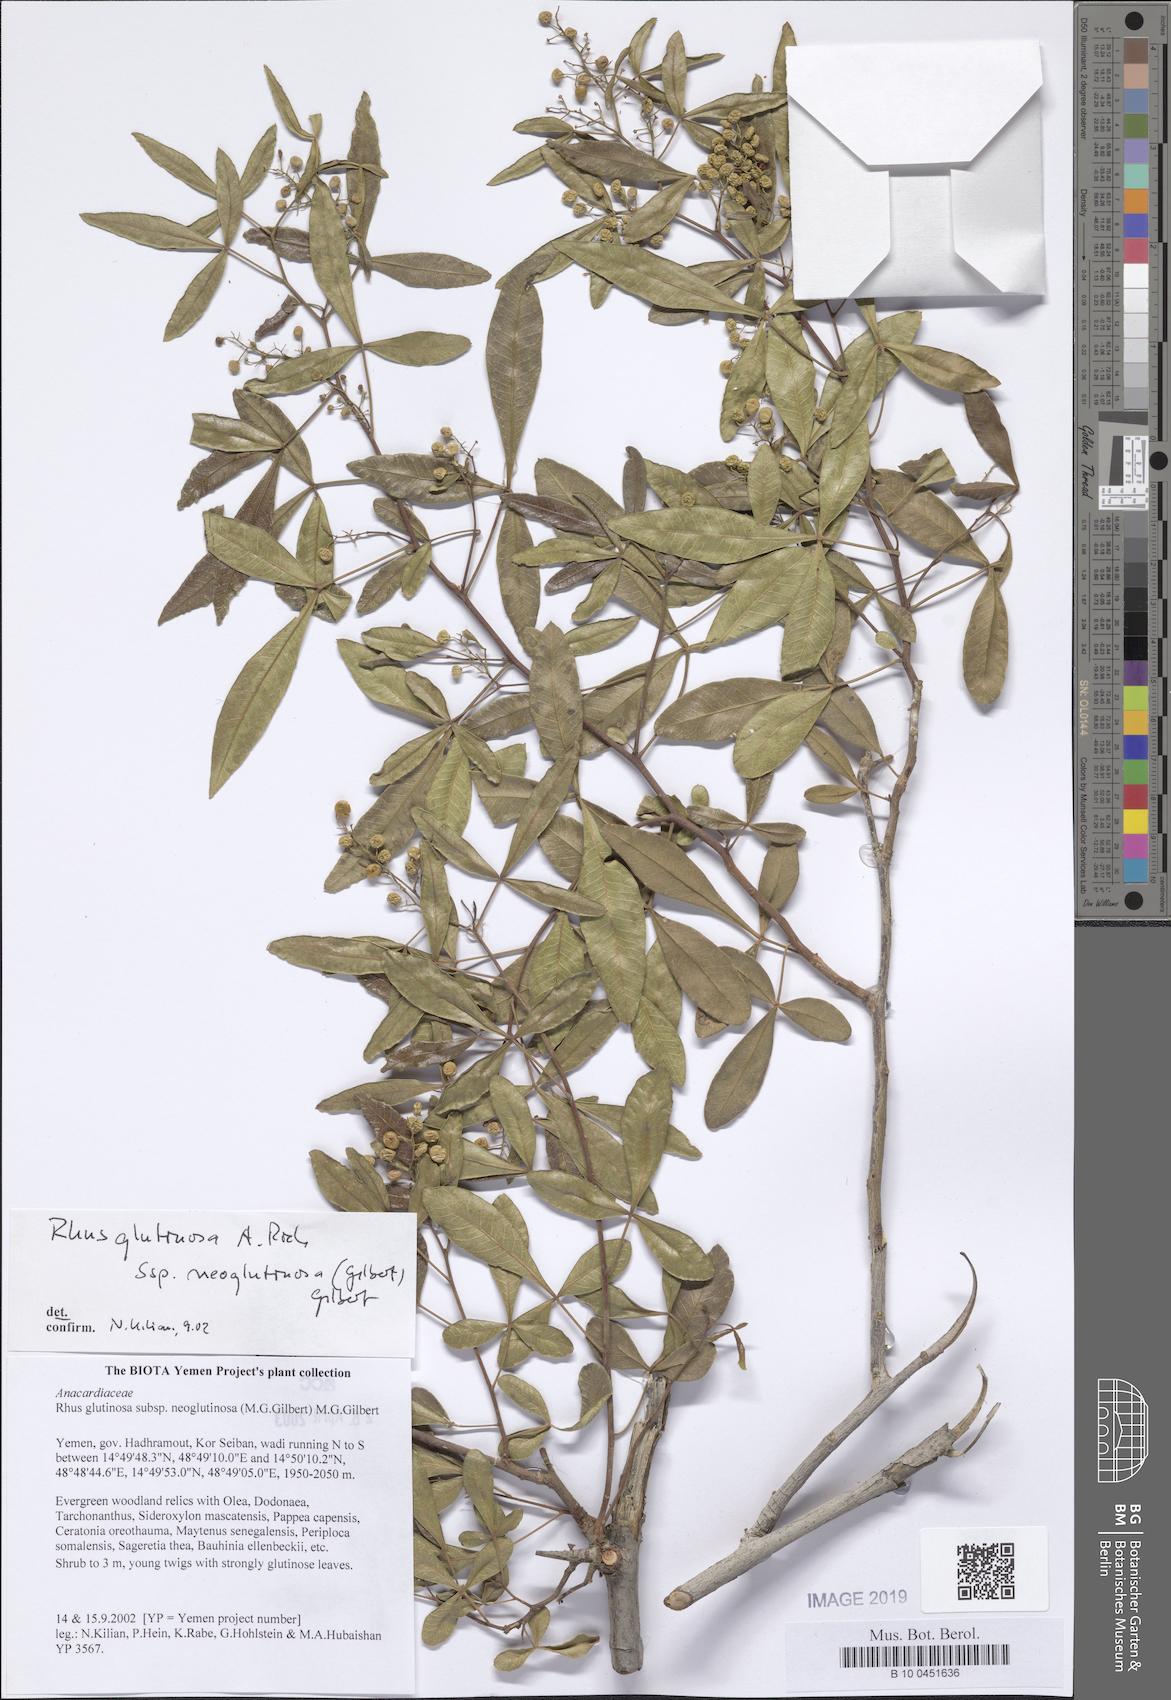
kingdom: Plantae
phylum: Tracheophyta
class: Magnoliopsida
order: Sapindales
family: Anacardiaceae
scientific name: Anacardiaceae
